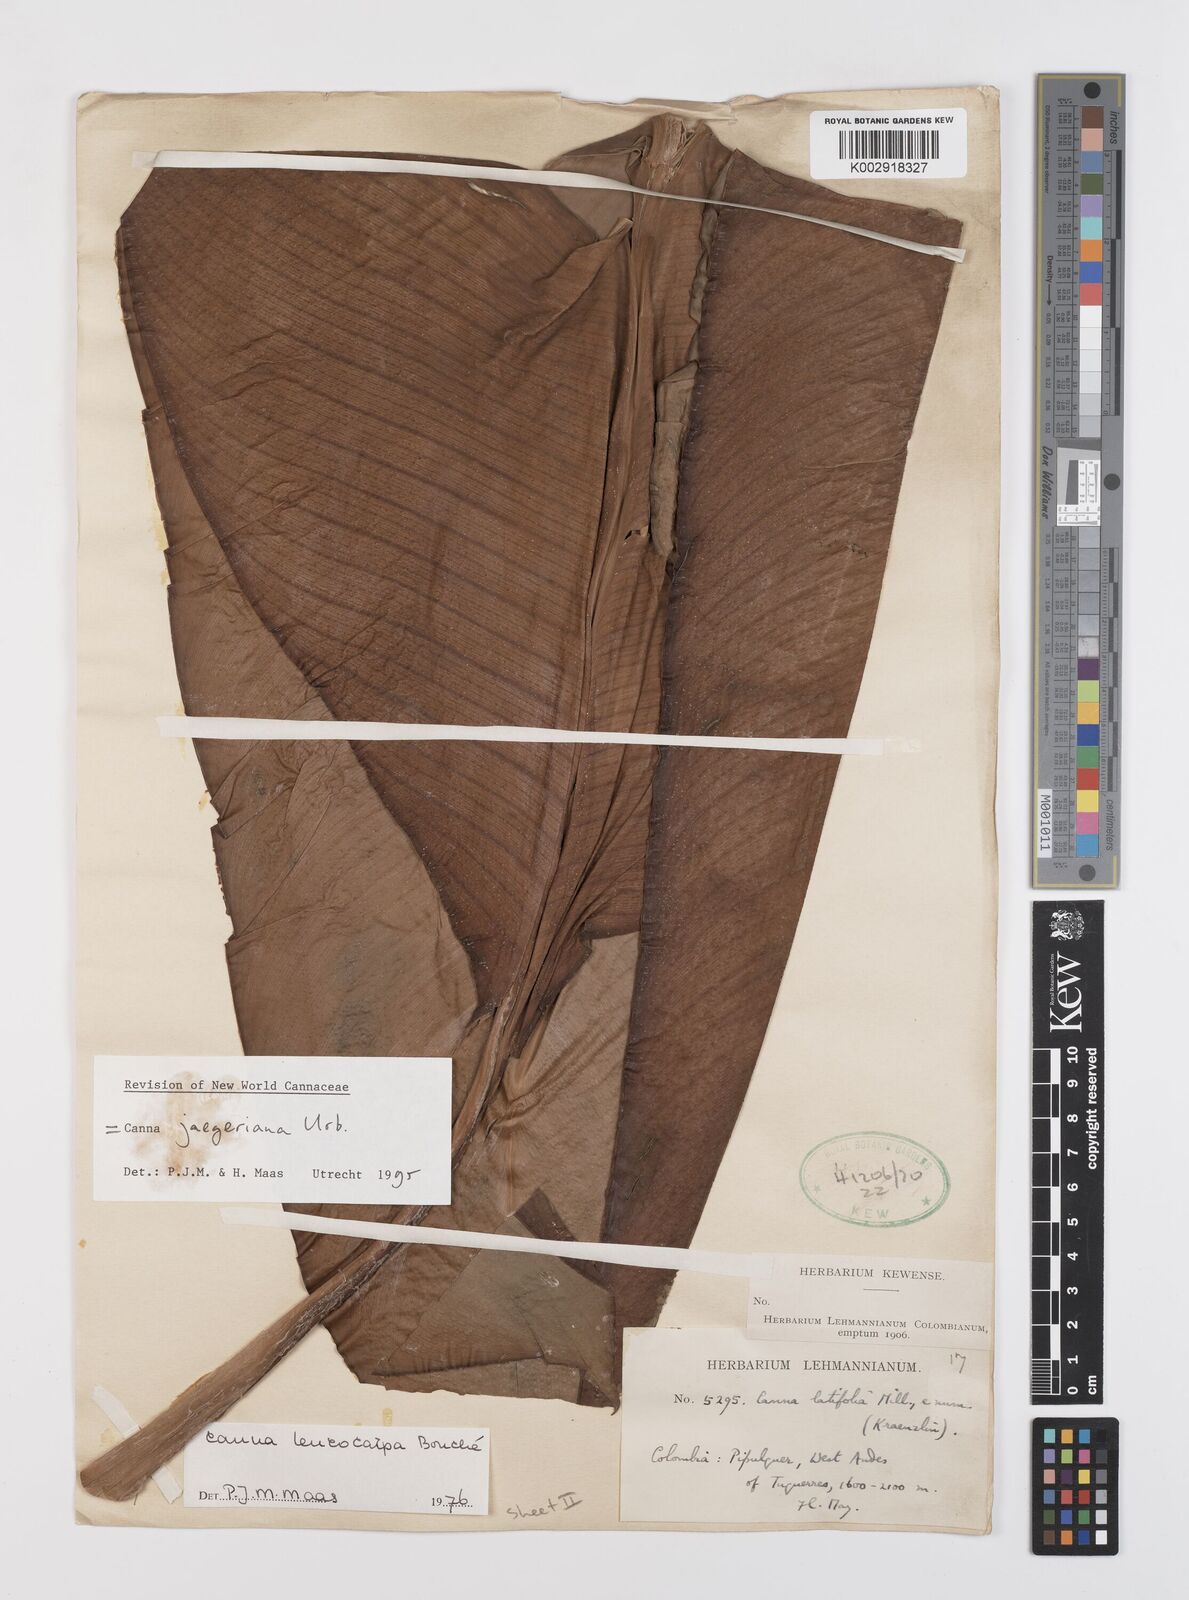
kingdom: Plantae
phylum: Tracheophyta
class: Liliopsida
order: Zingiberales
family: Cannaceae
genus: Canna
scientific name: Canna jaegeriana
